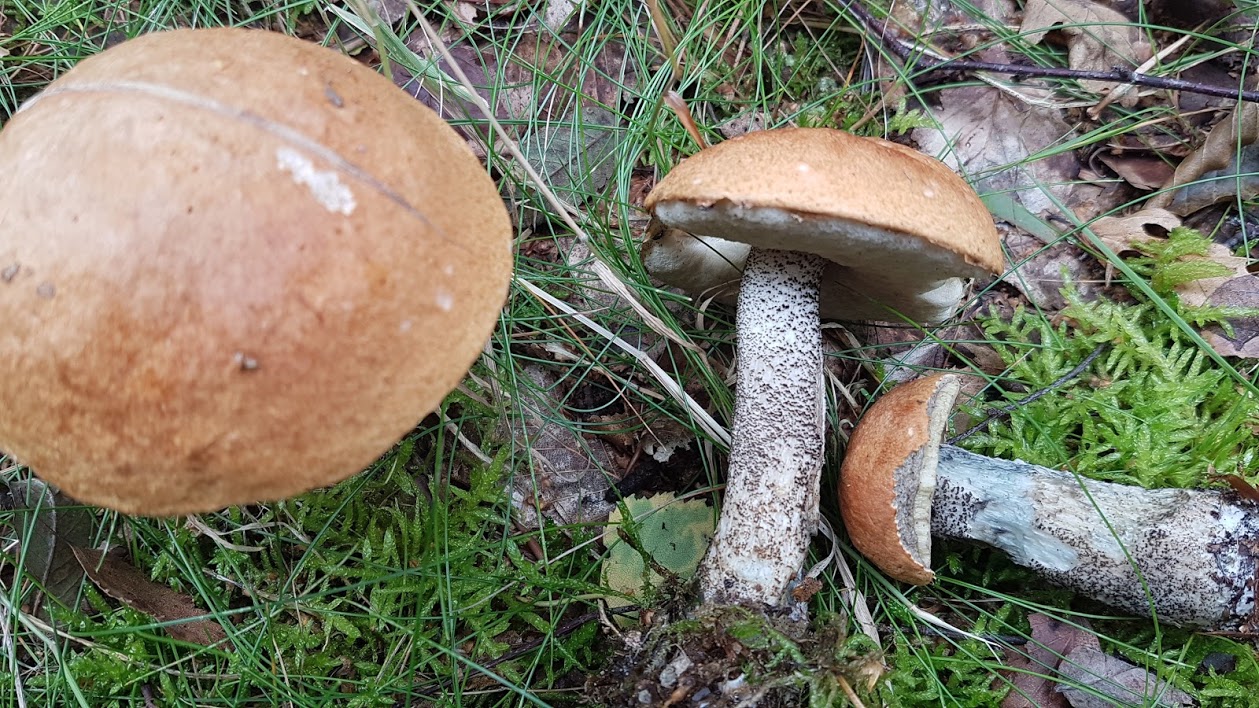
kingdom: Fungi
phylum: Basidiomycota
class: Agaricomycetes
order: Boletales
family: Boletaceae
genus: Leccinum
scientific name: Leccinum versipelle
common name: orange skælrørhat
